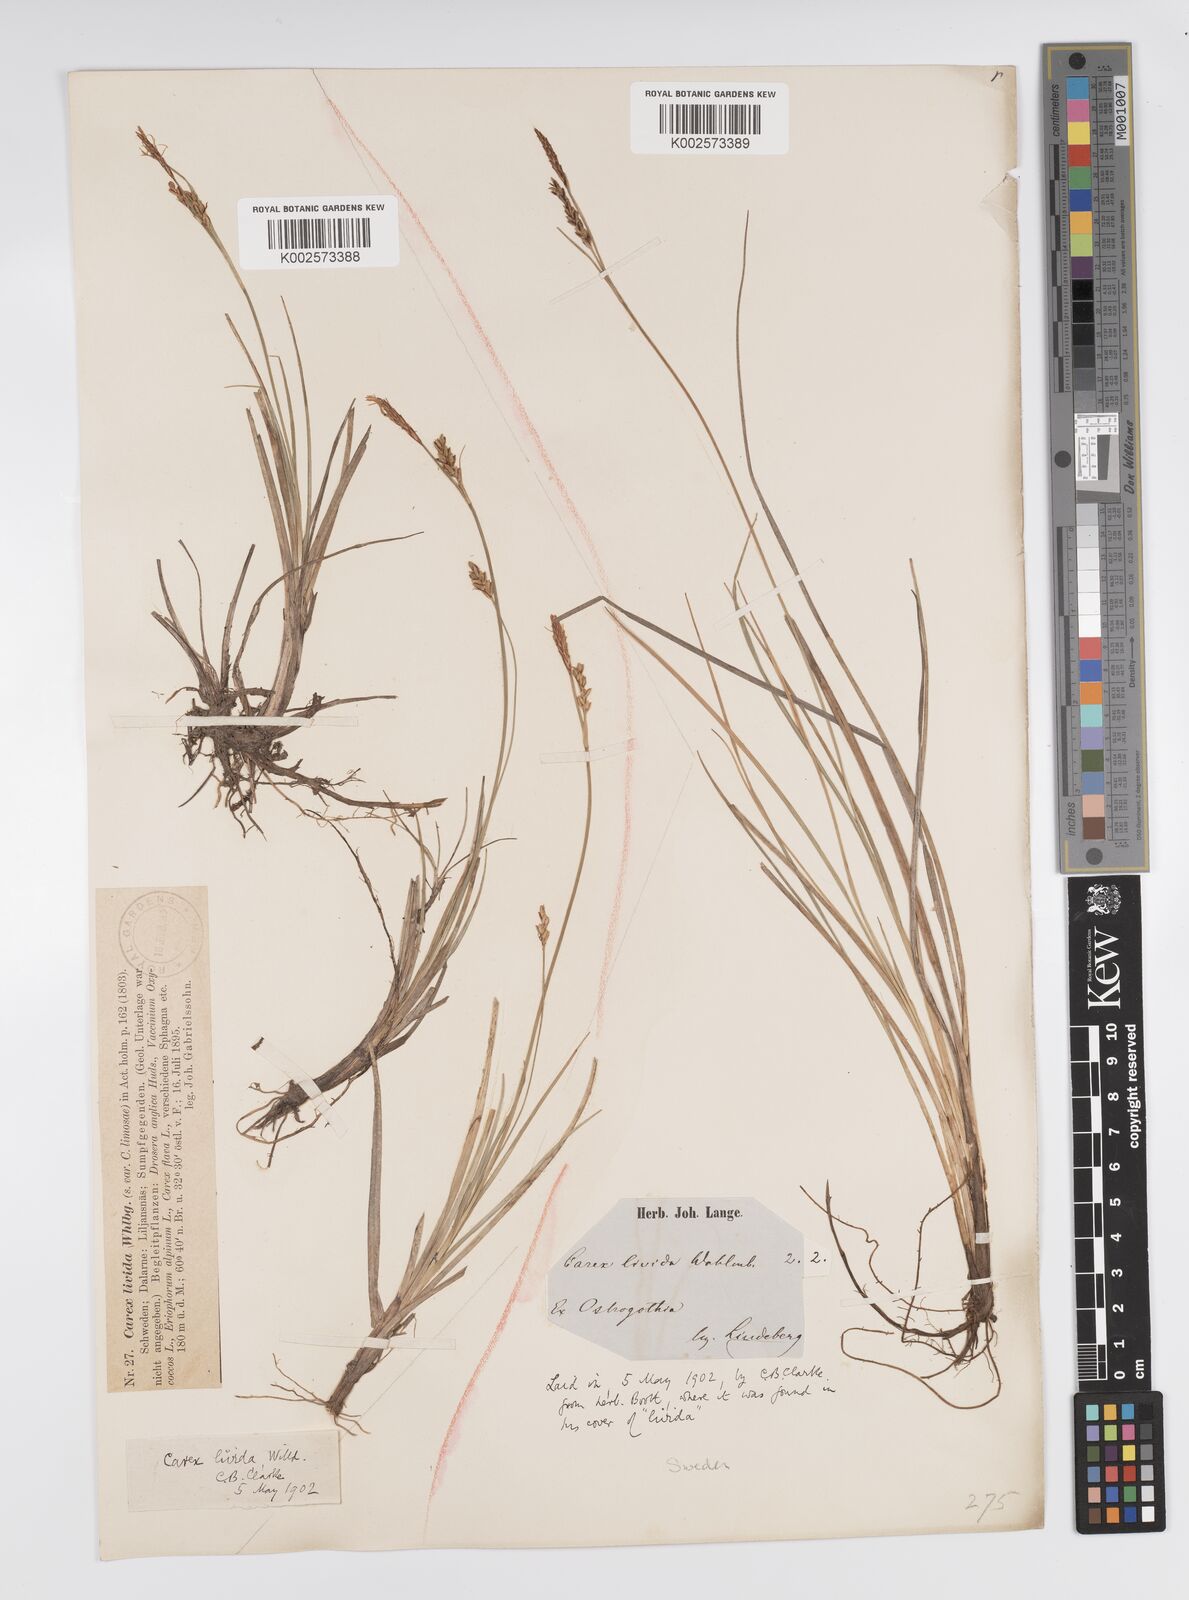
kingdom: Plantae
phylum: Tracheophyta
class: Liliopsida
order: Poales
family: Cyperaceae
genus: Carex
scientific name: Carex livida
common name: Livid sedge
